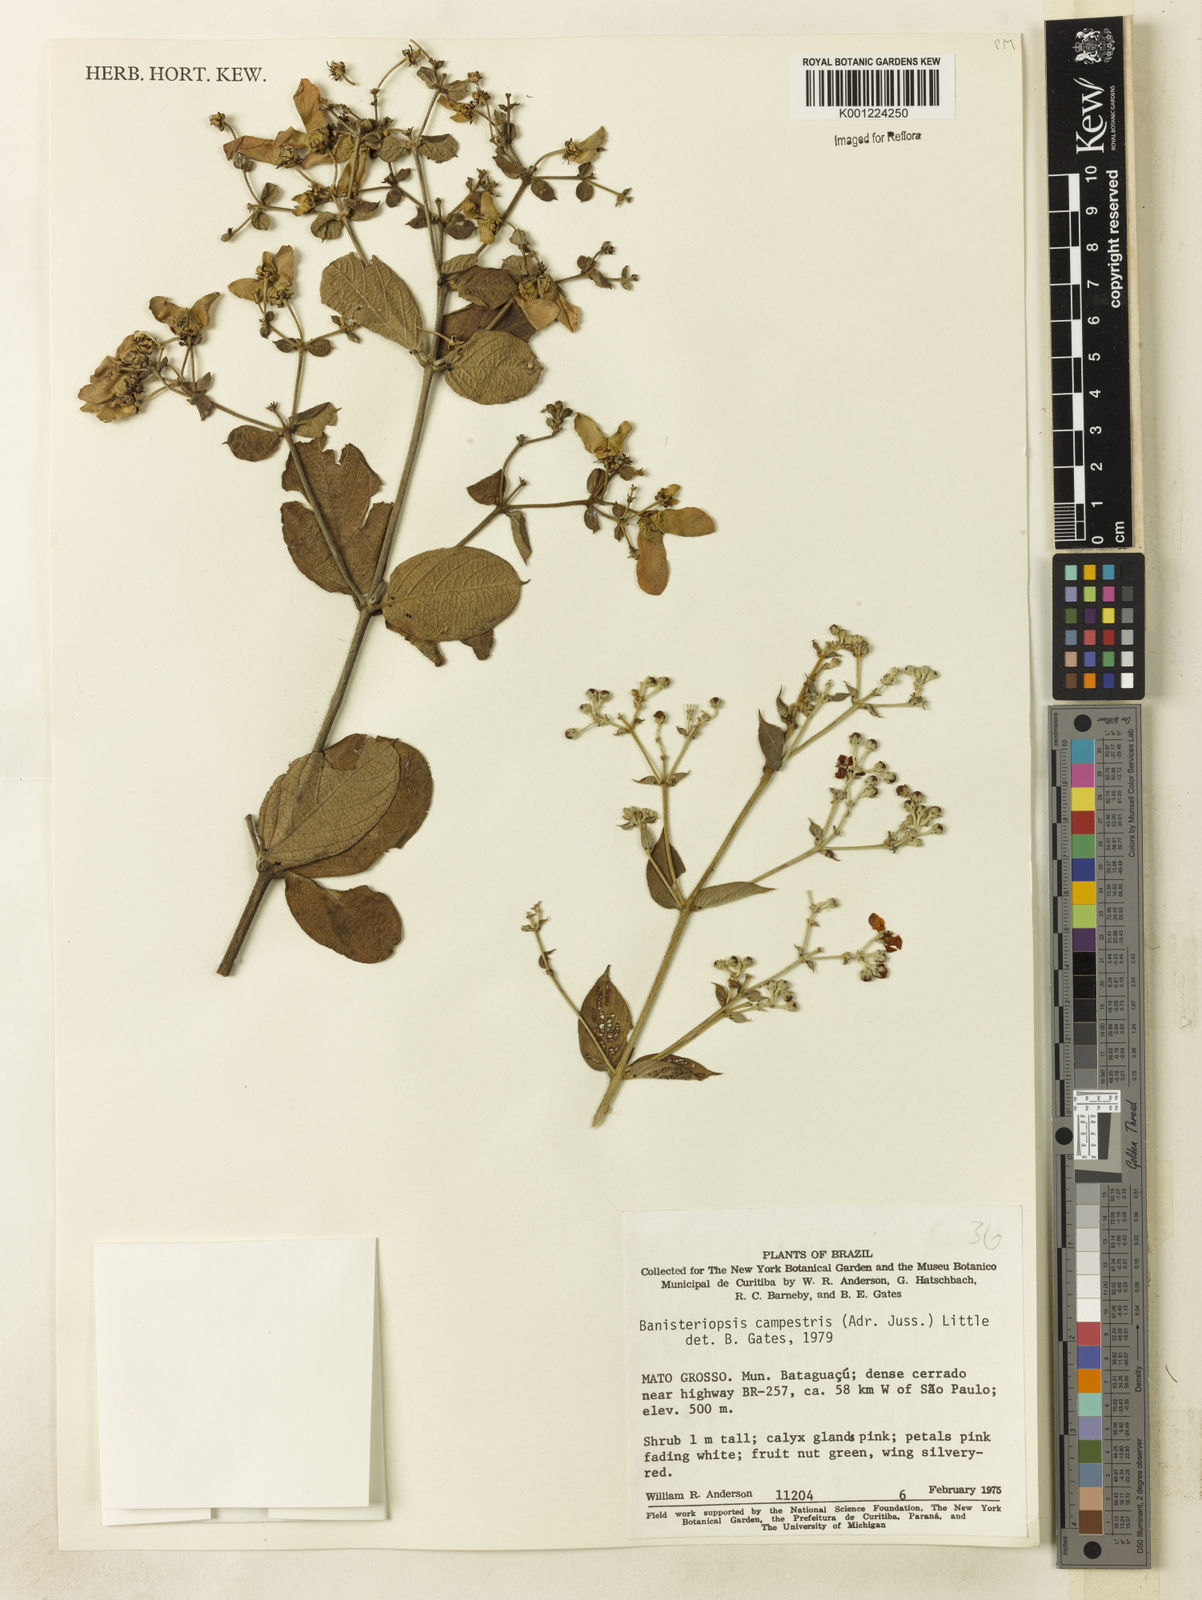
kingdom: Plantae
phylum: Tracheophyta
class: Magnoliopsida
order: Malpighiales
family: Malpighiaceae
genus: Banisteriopsis
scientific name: Banisteriopsis campestris
